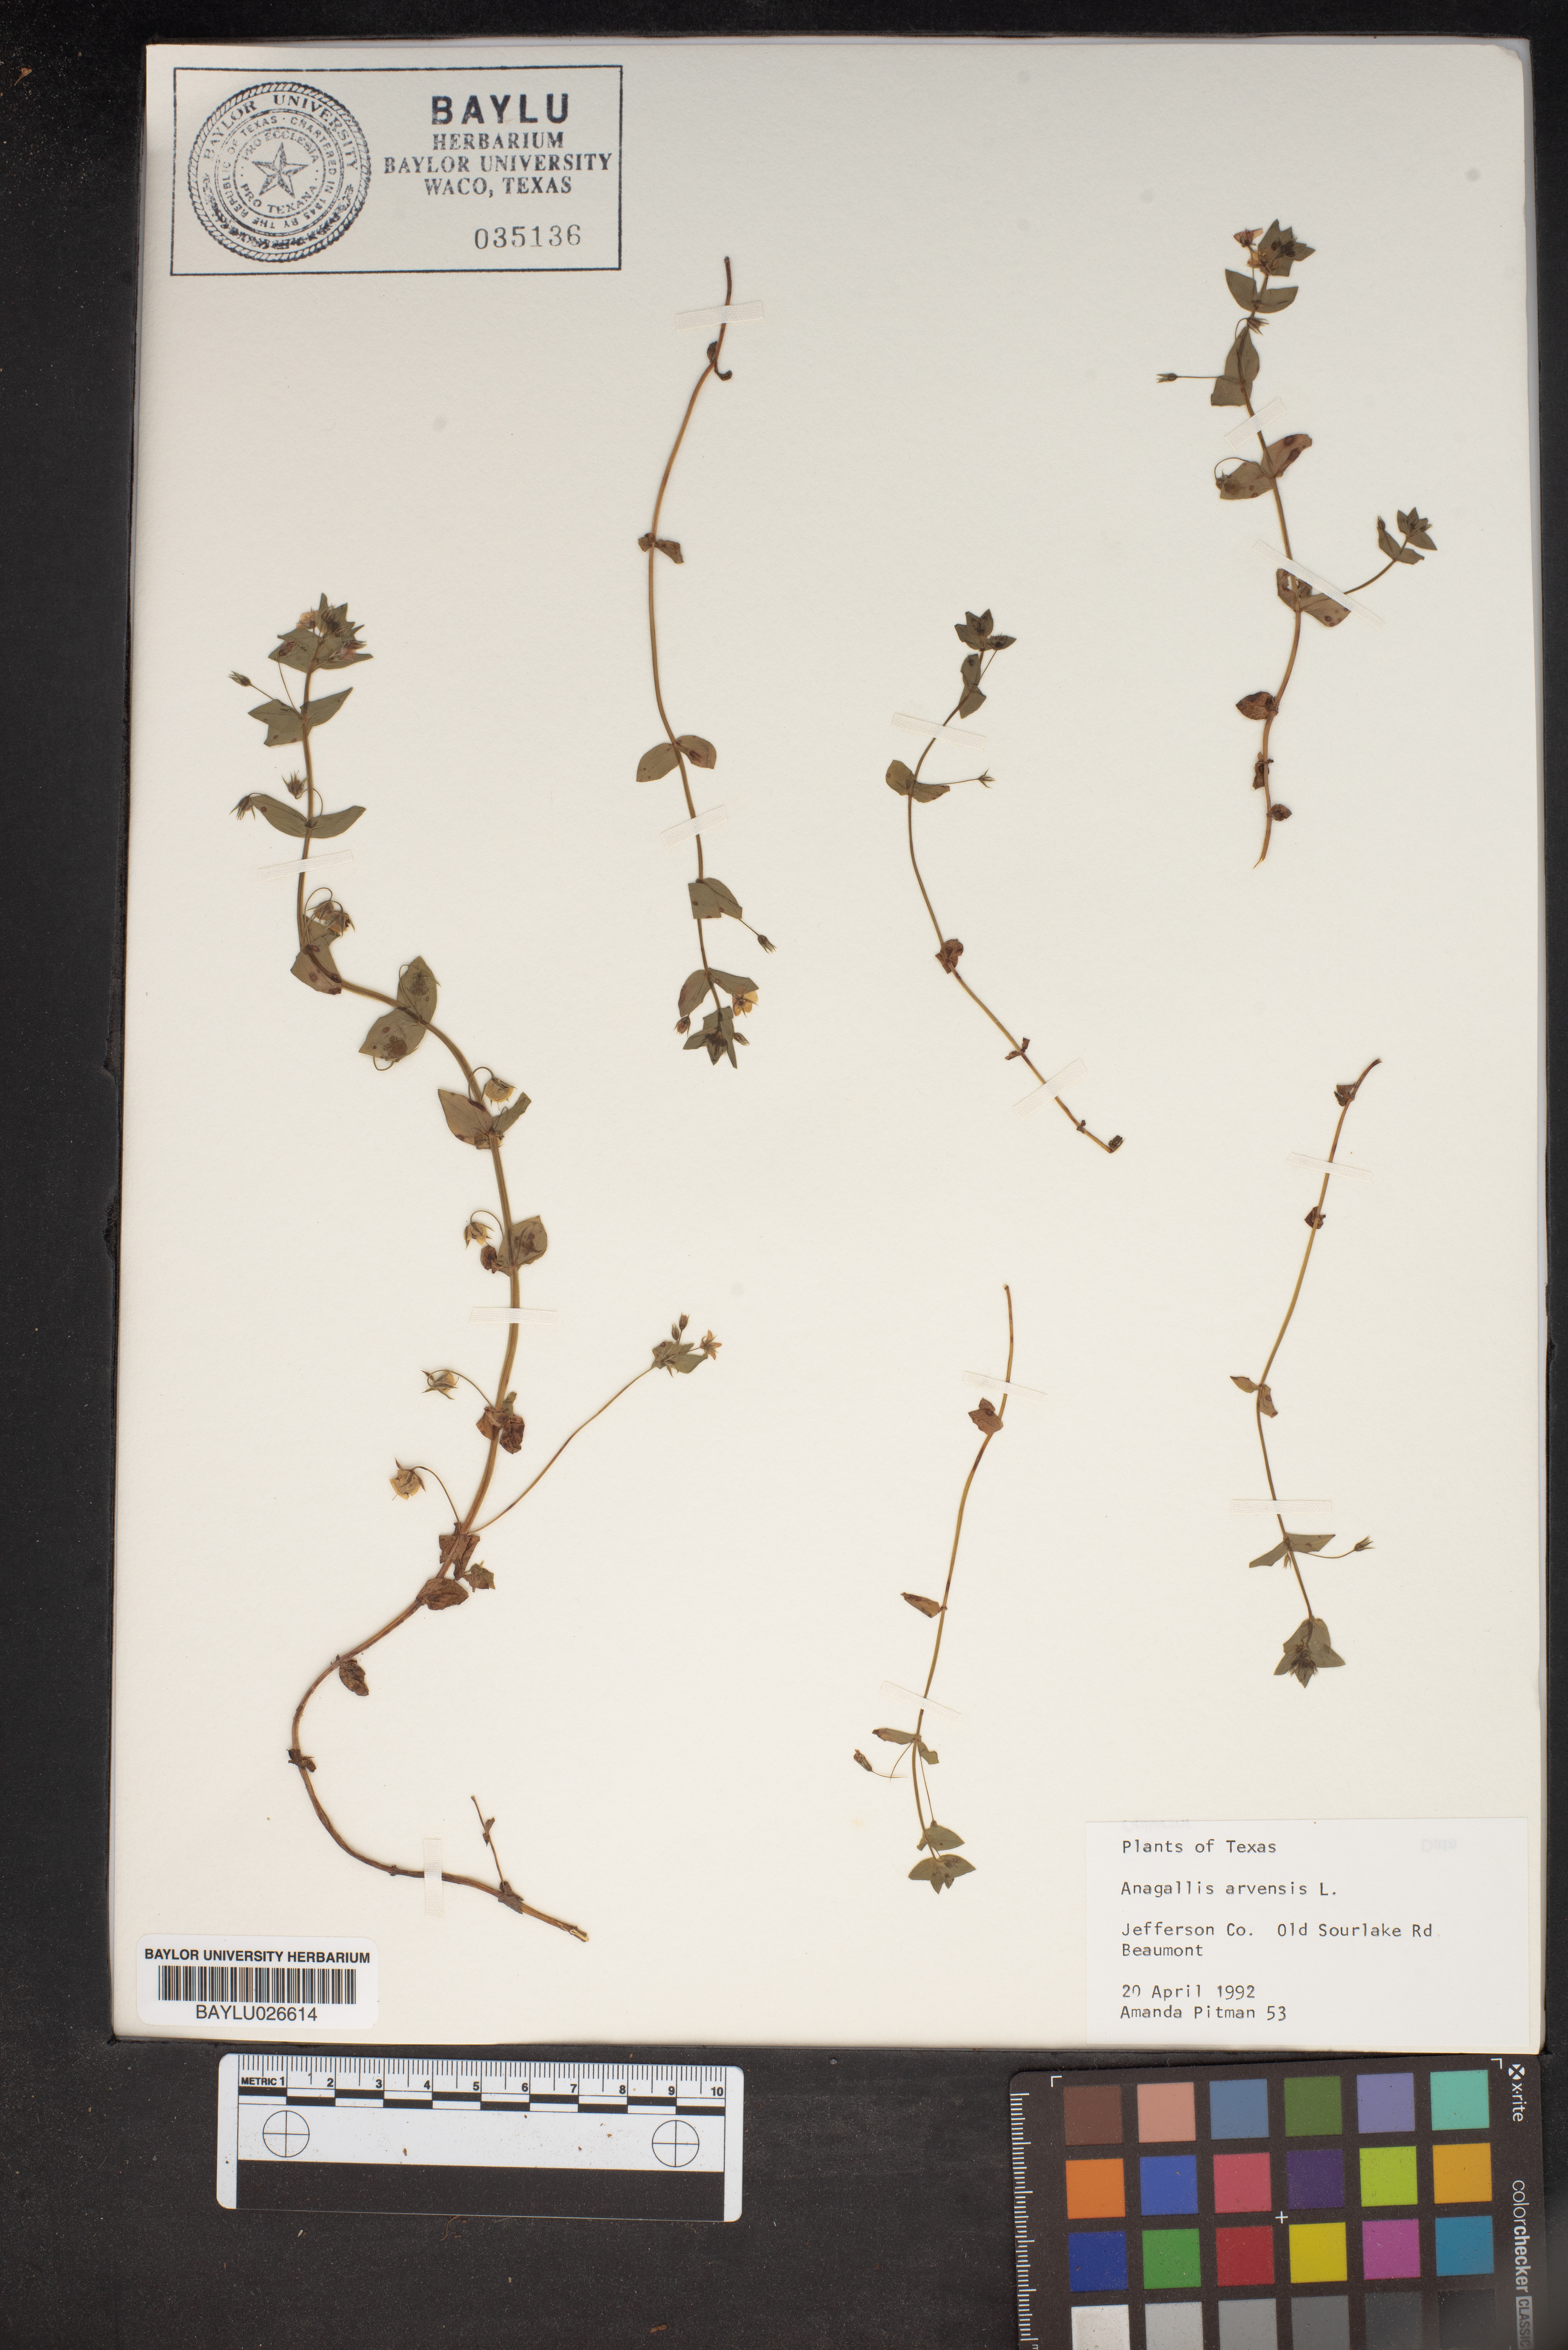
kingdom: Plantae
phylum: Tracheophyta
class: Magnoliopsida
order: Ericales
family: Primulaceae
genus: Lysimachia
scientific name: Lysimachia arvensis
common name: Scarlet pimpernel
